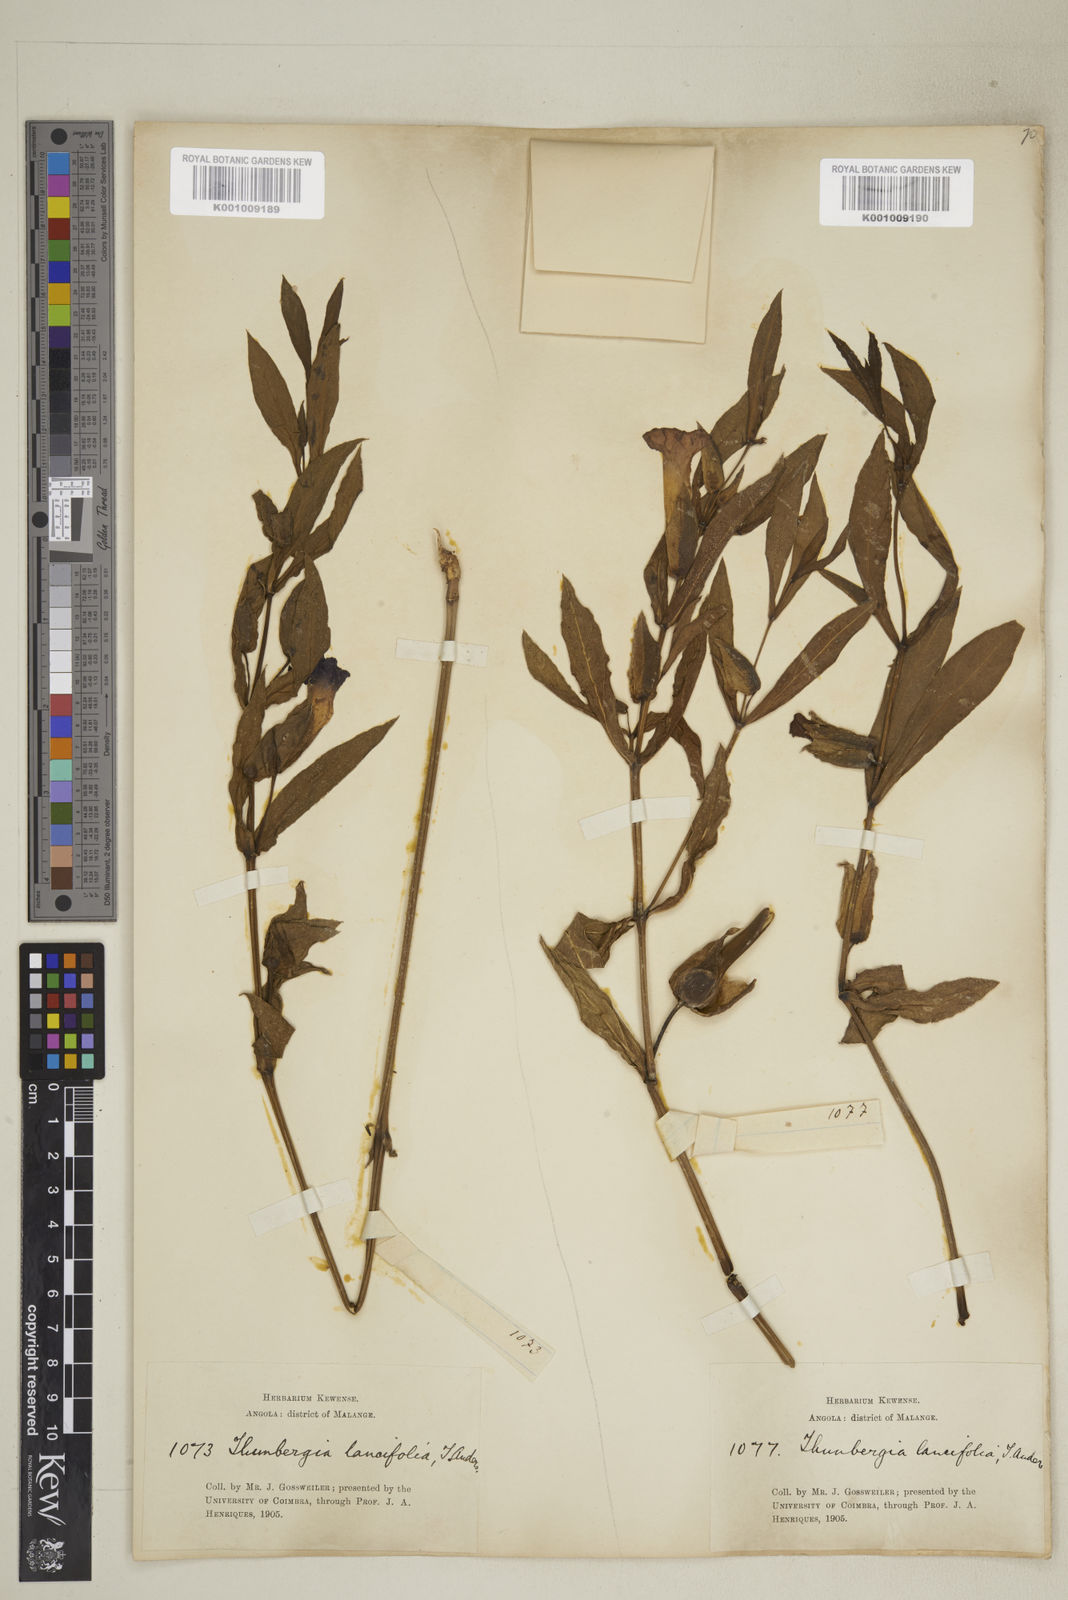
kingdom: Plantae
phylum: Tracheophyta
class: Magnoliopsida
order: Lamiales
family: Acanthaceae
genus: Thunbergia
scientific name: Thunbergia lancifolia
